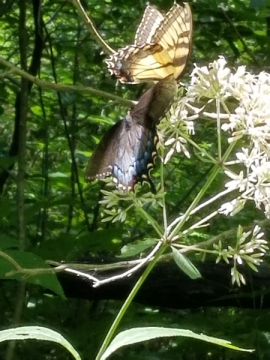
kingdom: Animalia
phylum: Arthropoda
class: Insecta
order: Lepidoptera
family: Papilionidae
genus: Pterourus
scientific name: Pterourus glaucus
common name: Eastern Tiger Swallowtail
